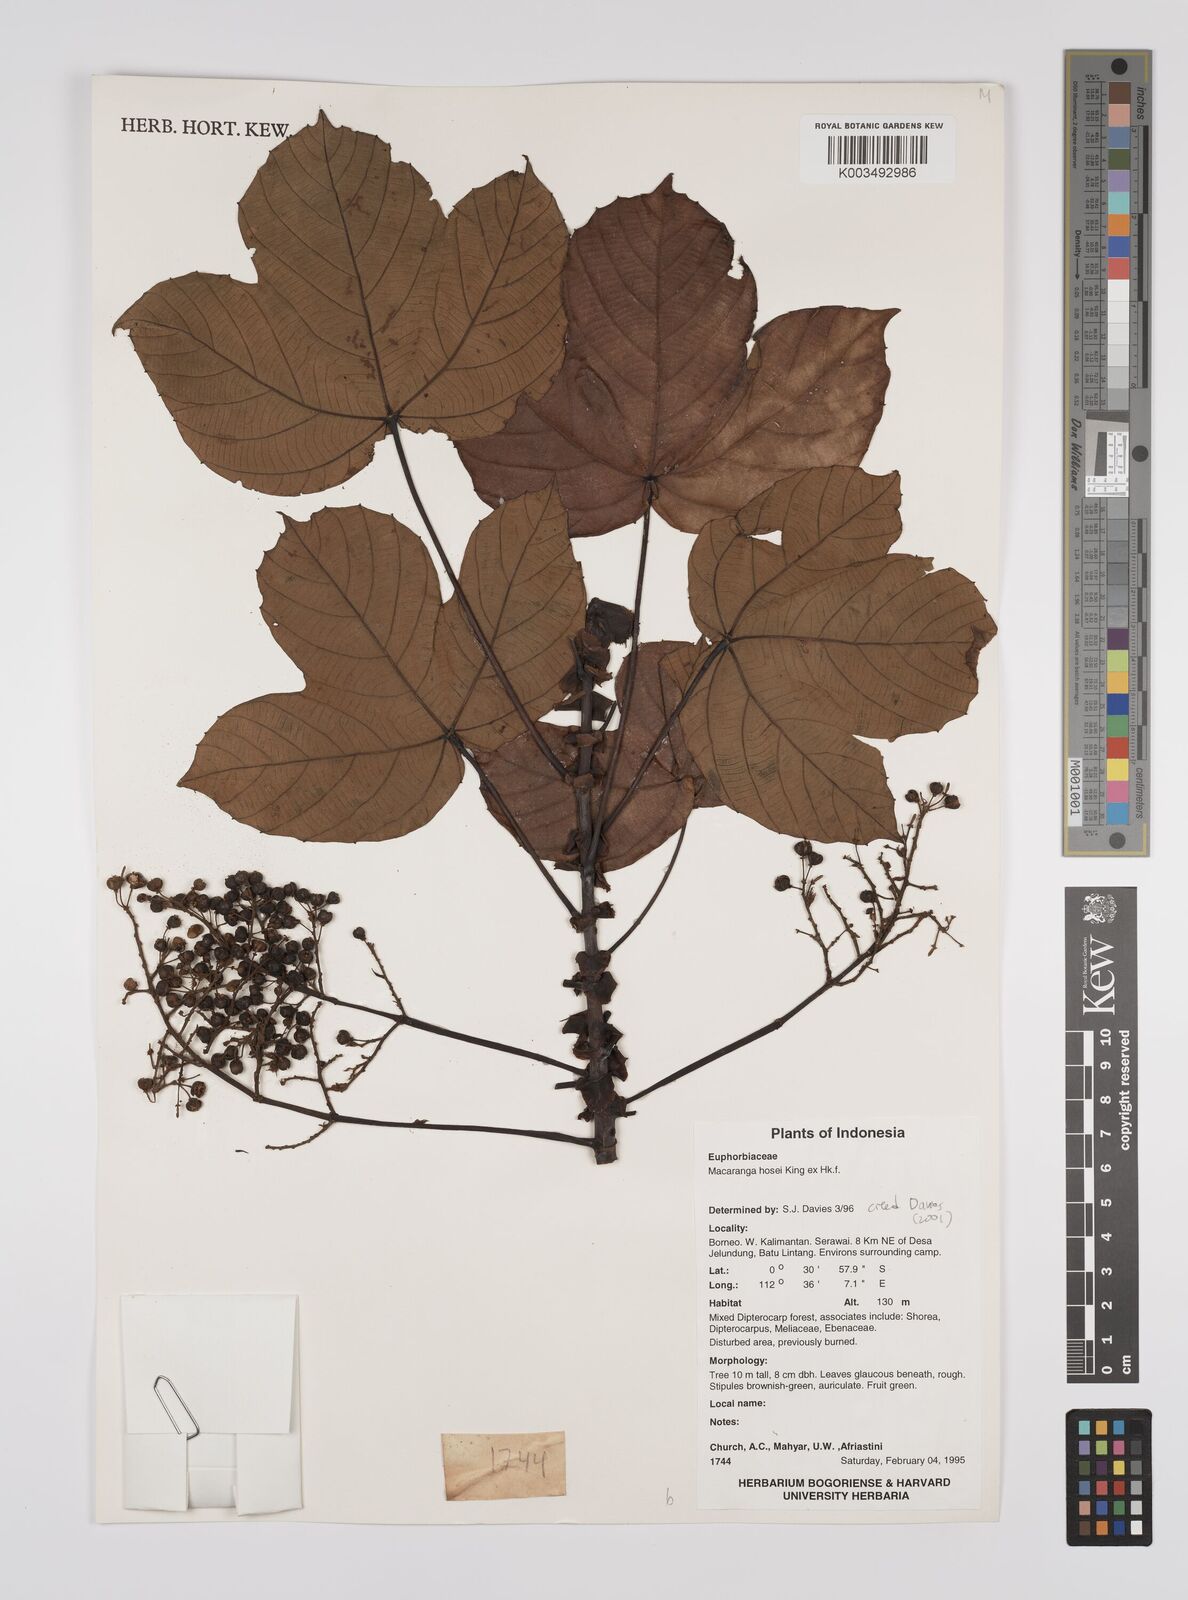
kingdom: Plantae
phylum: Tracheophyta
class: Magnoliopsida
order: Malpighiales
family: Euphorbiaceae
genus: Macaranga
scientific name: Macaranga hosei
